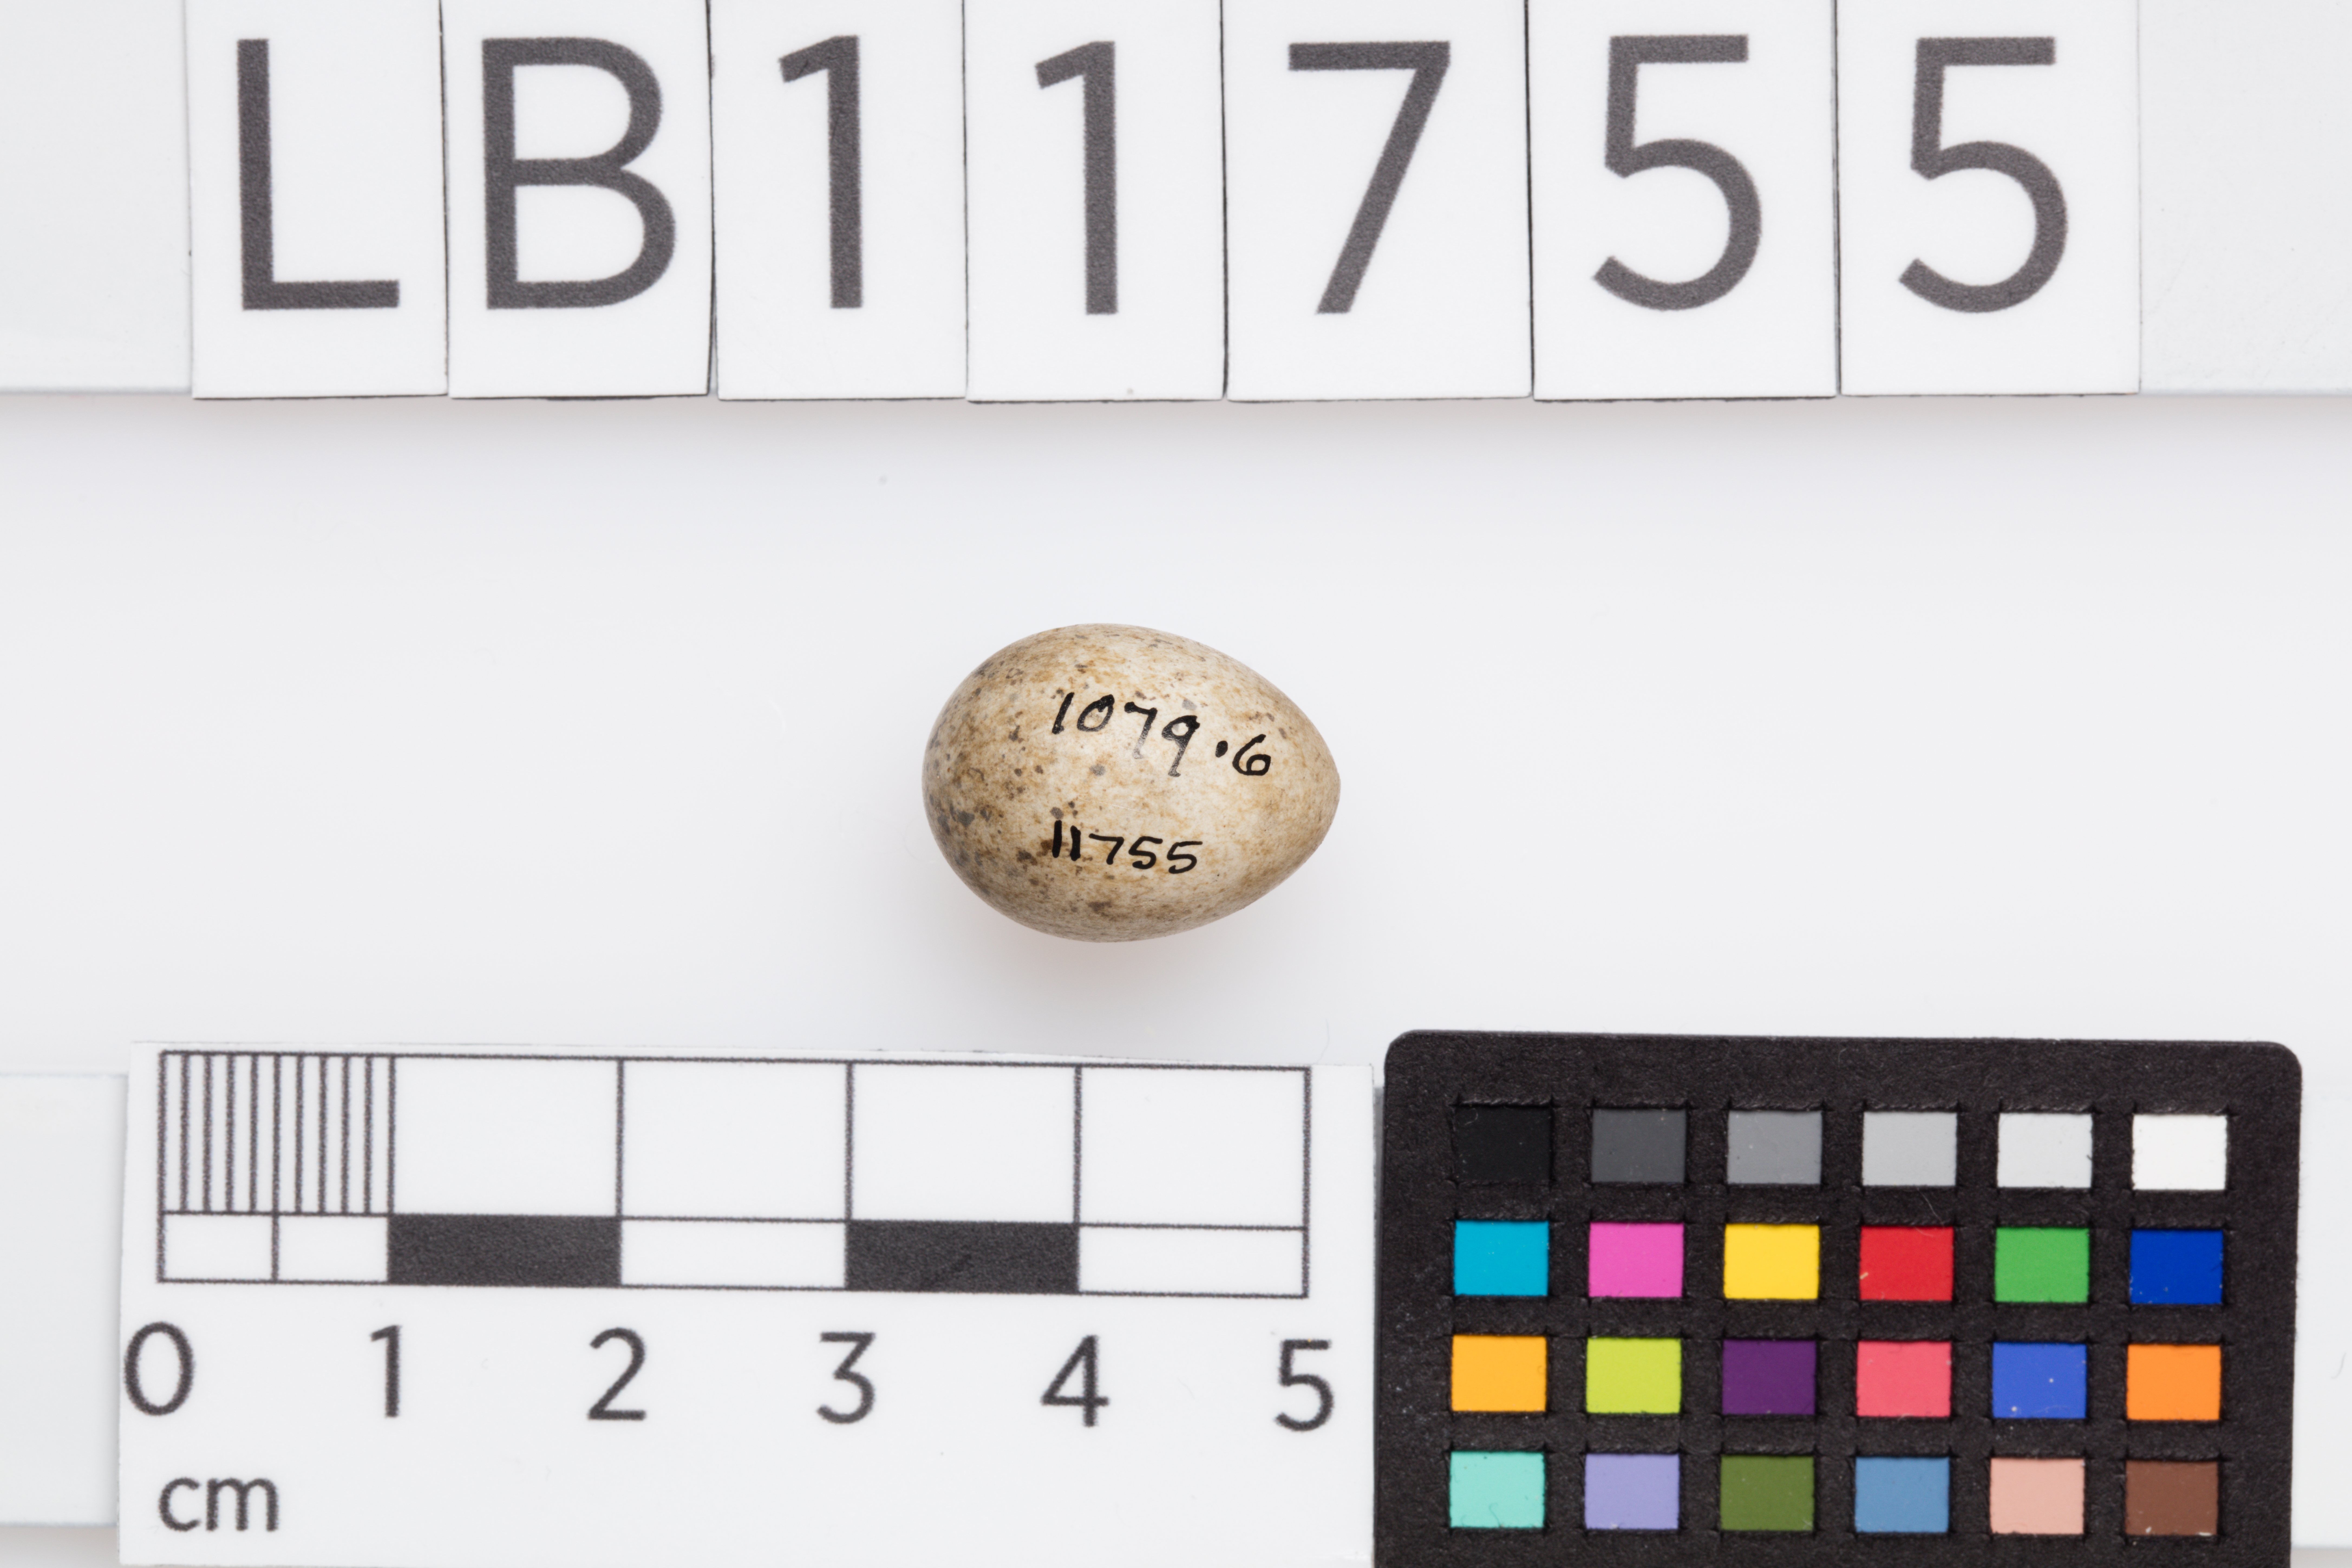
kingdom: Animalia
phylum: Chordata
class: Aves
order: Passeriformes
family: Sylviidae
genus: Sylvia
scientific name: Sylvia communis
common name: Common whitethroat
